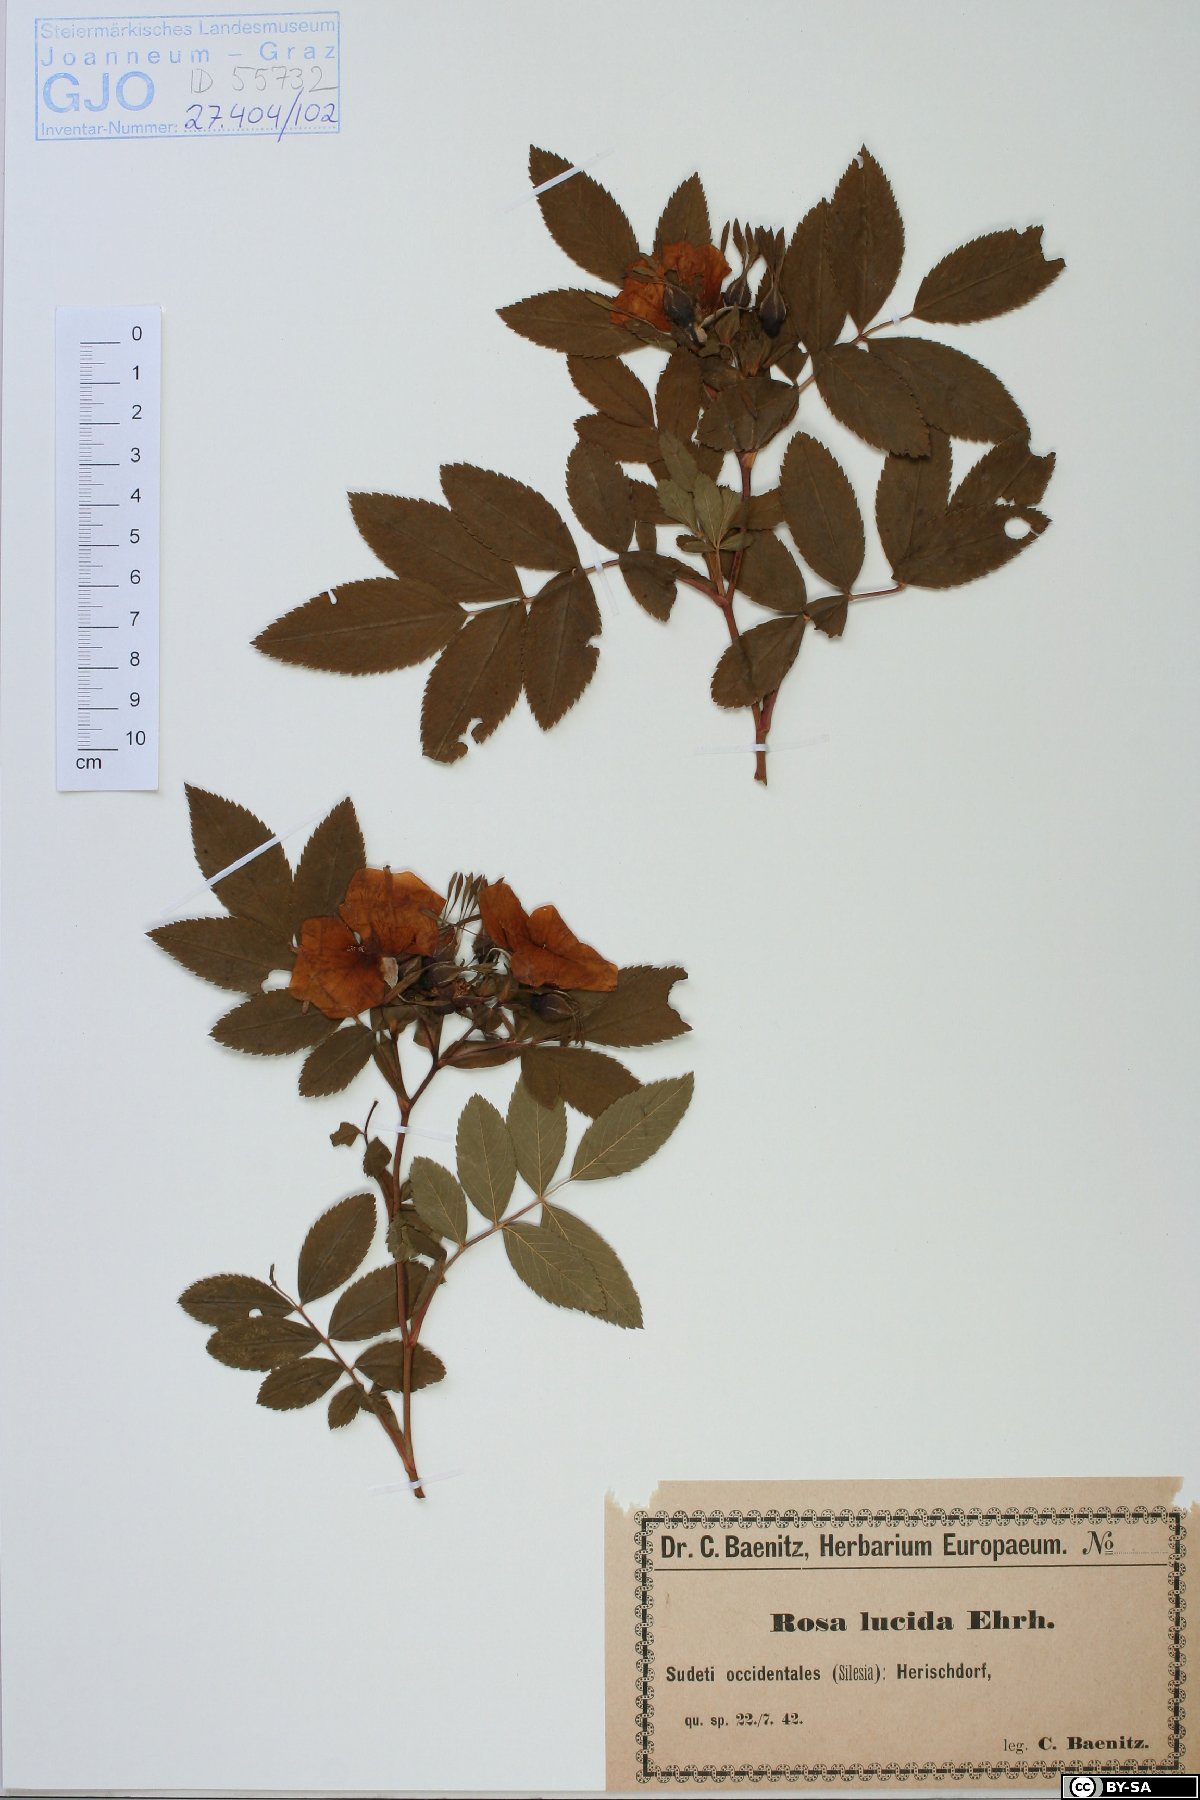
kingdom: Plantae
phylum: Tracheophyta
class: Magnoliopsida
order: Rosales
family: Rosaceae
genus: Rosa
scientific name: Rosa virginiana
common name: Virginian rose
